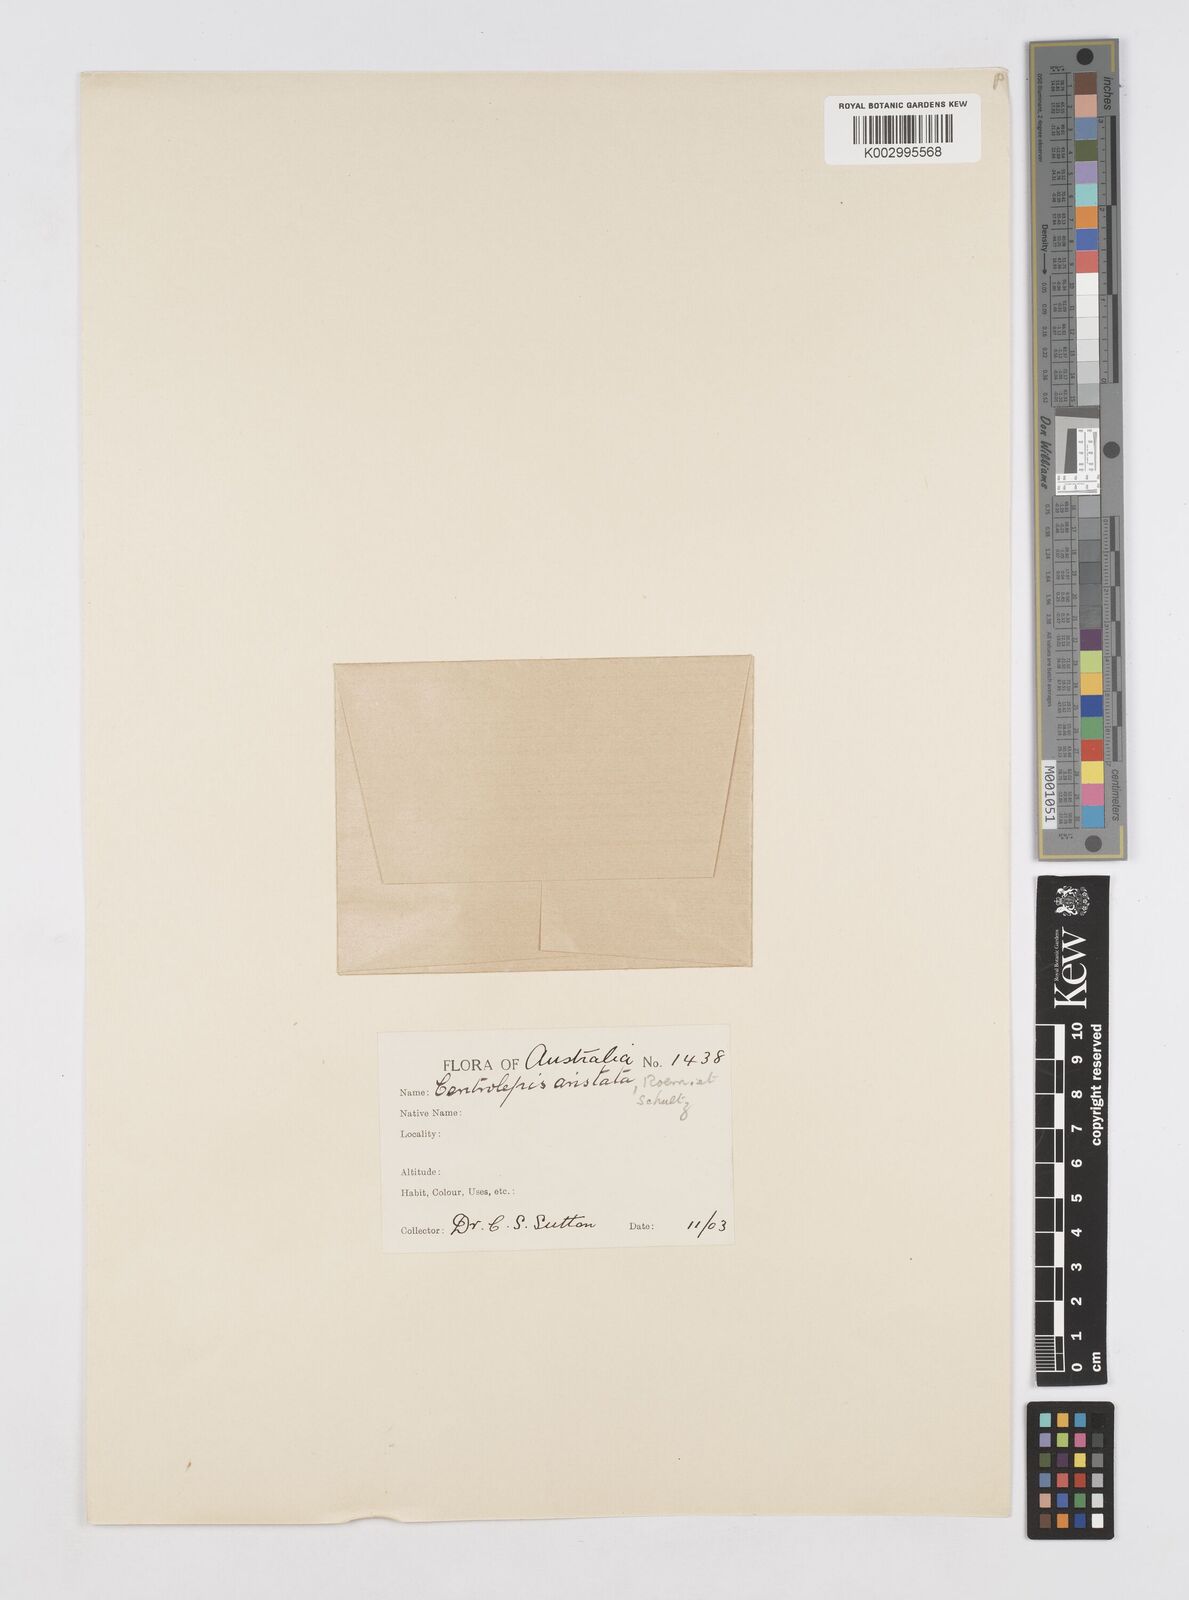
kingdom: Plantae
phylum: Tracheophyta
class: Liliopsida
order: Poales
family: Restionaceae
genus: Centrolepis
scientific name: Centrolepis aristata
